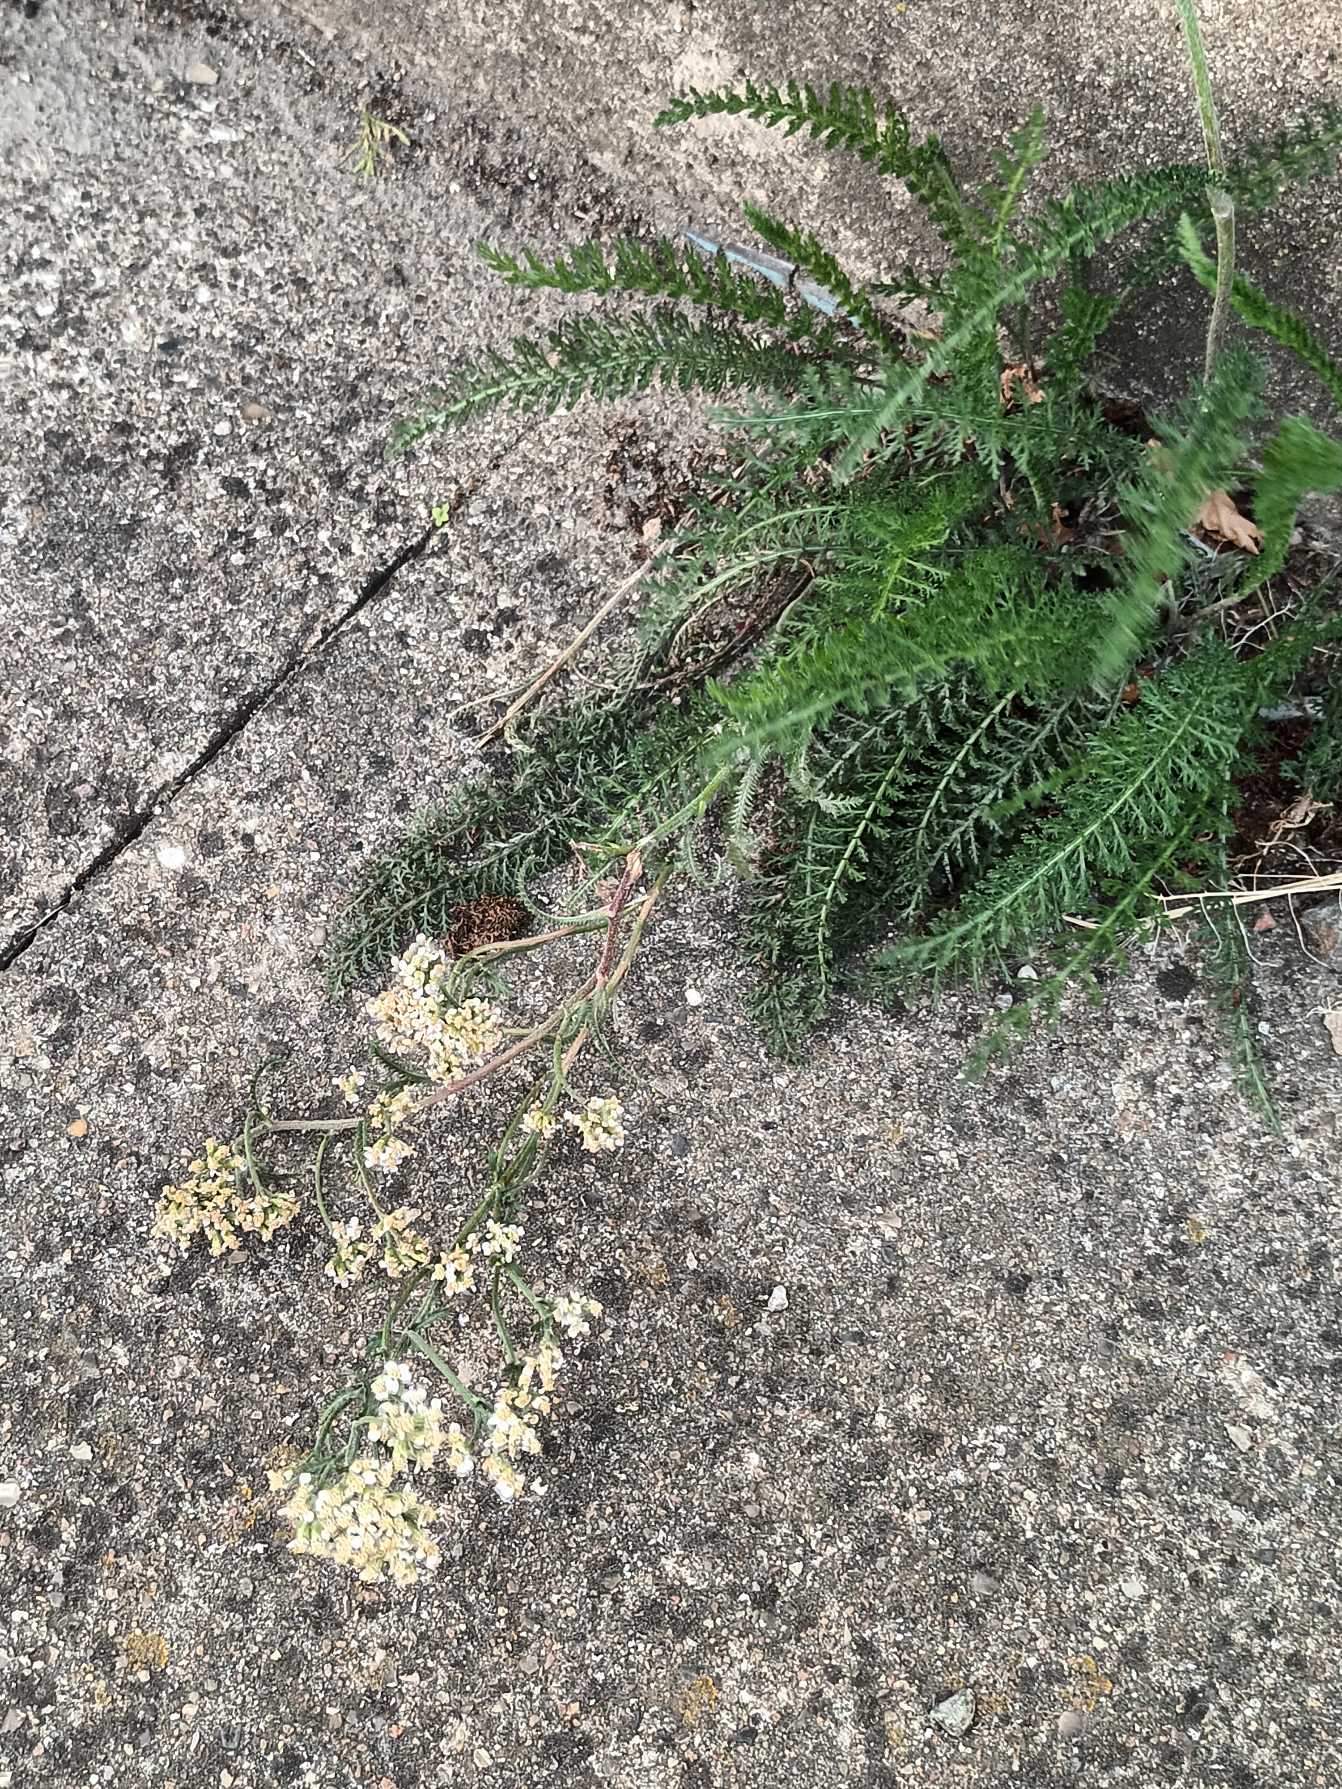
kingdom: Plantae
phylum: Tracheophyta
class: Magnoliopsida
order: Asterales
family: Asteraceae
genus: Achillea
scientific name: Achillea millefolium
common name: Almindelig røllike
